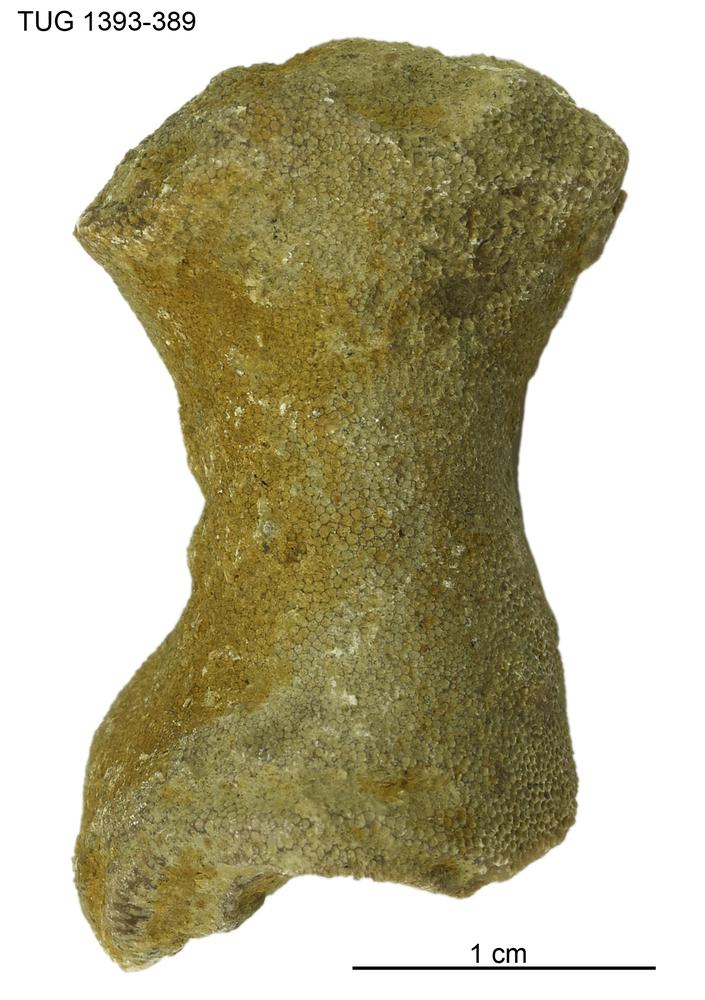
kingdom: Animalia
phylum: Bryozoa
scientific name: Bryozoa
